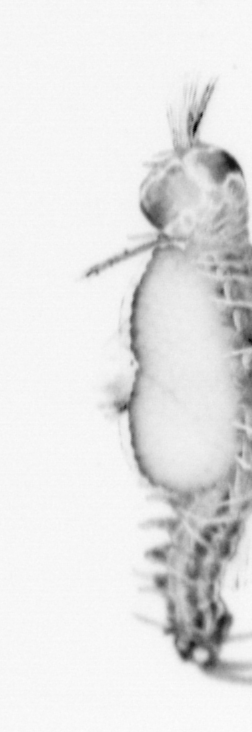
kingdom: Animalia
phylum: Annelida
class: Polychaeta
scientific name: Polychaeta
